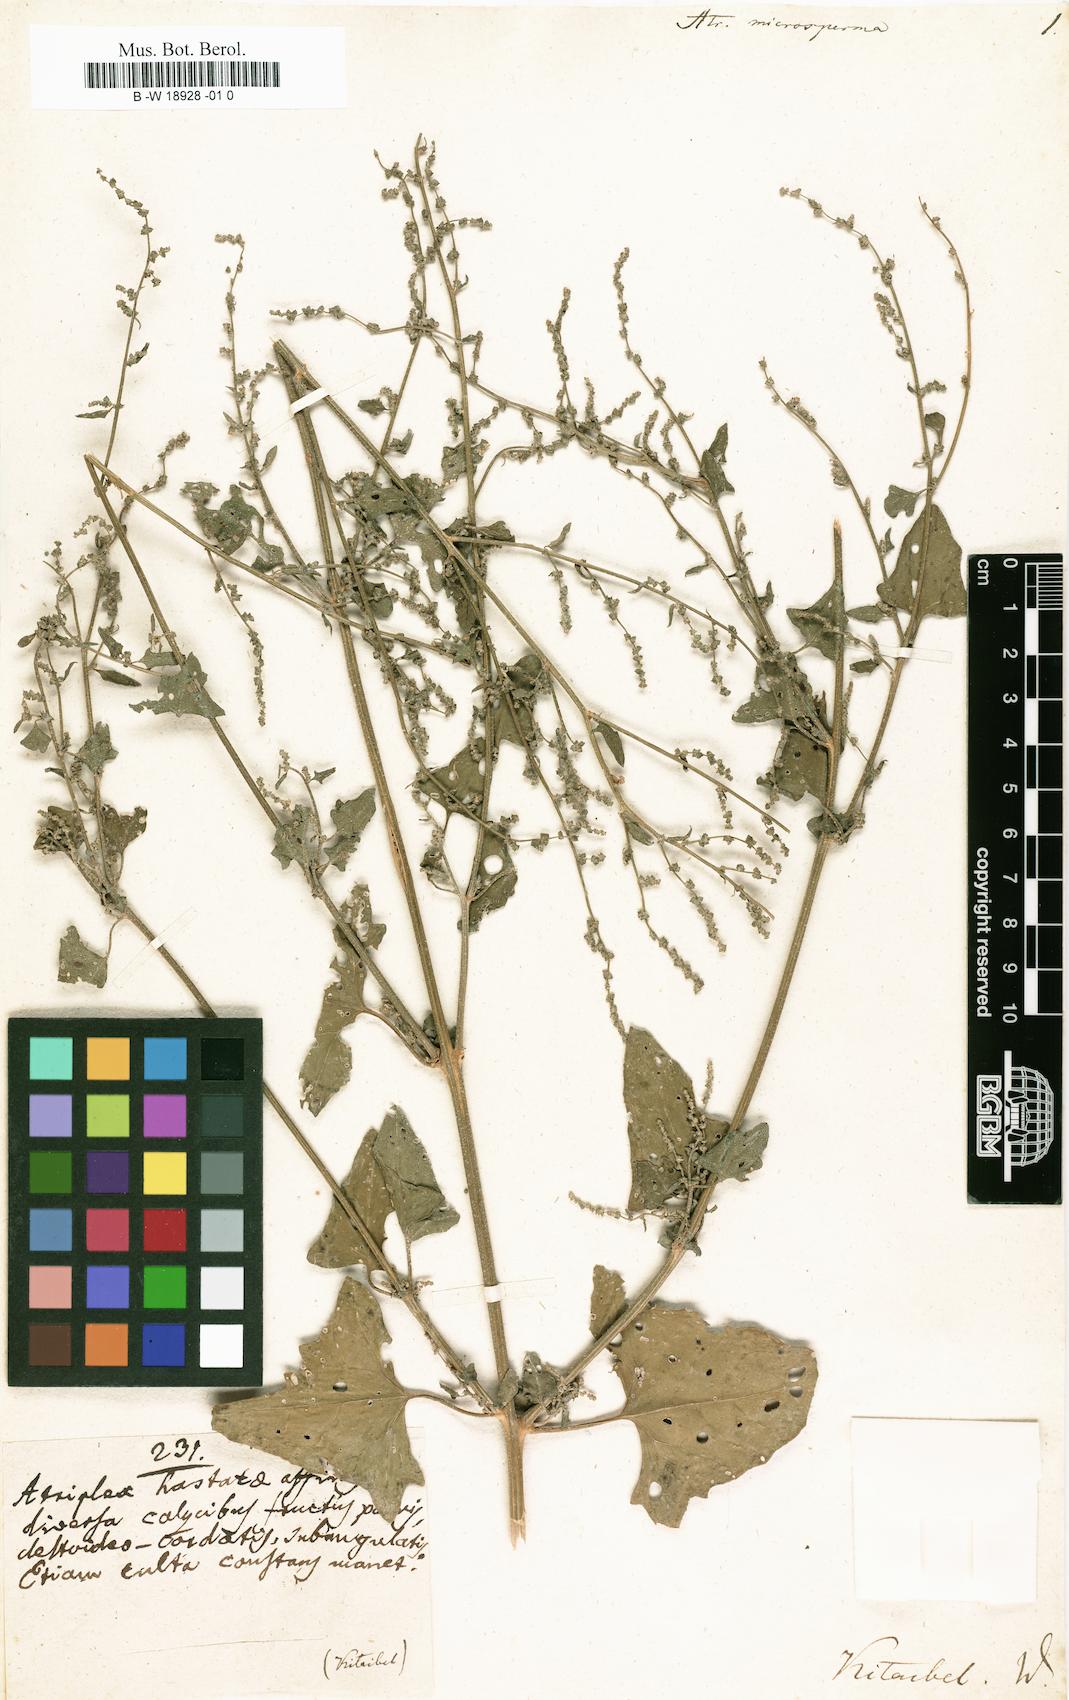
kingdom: Plantae
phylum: Tracheophyta
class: Magnoliopsida
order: Caryophyllales
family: Amaranthaceae
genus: Atriplex
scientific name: Atriplex prostrata
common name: Spear-leaved orache
